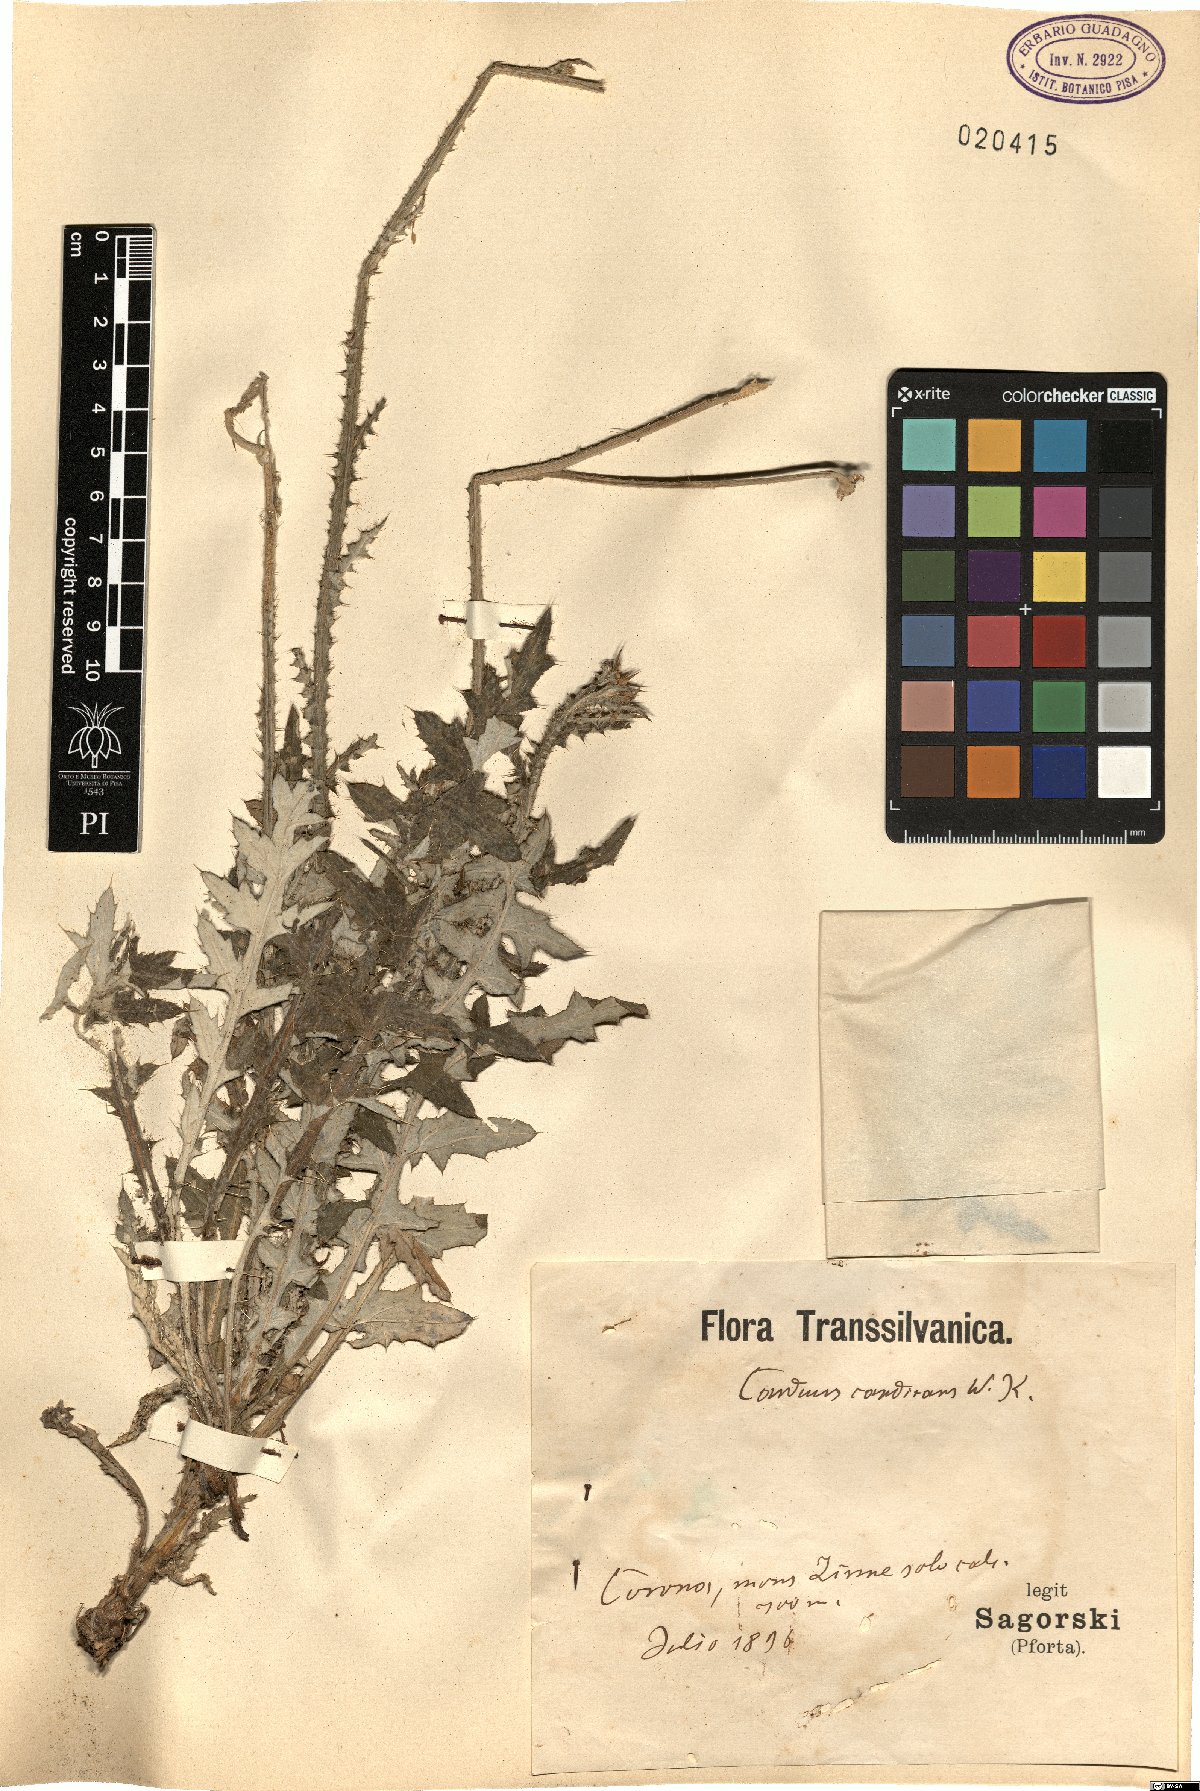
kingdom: Plantae
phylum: Tracheophyta
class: Magnoliopsida
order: Asterales
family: Asteraceae
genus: Carduus
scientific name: Carduus candicans
